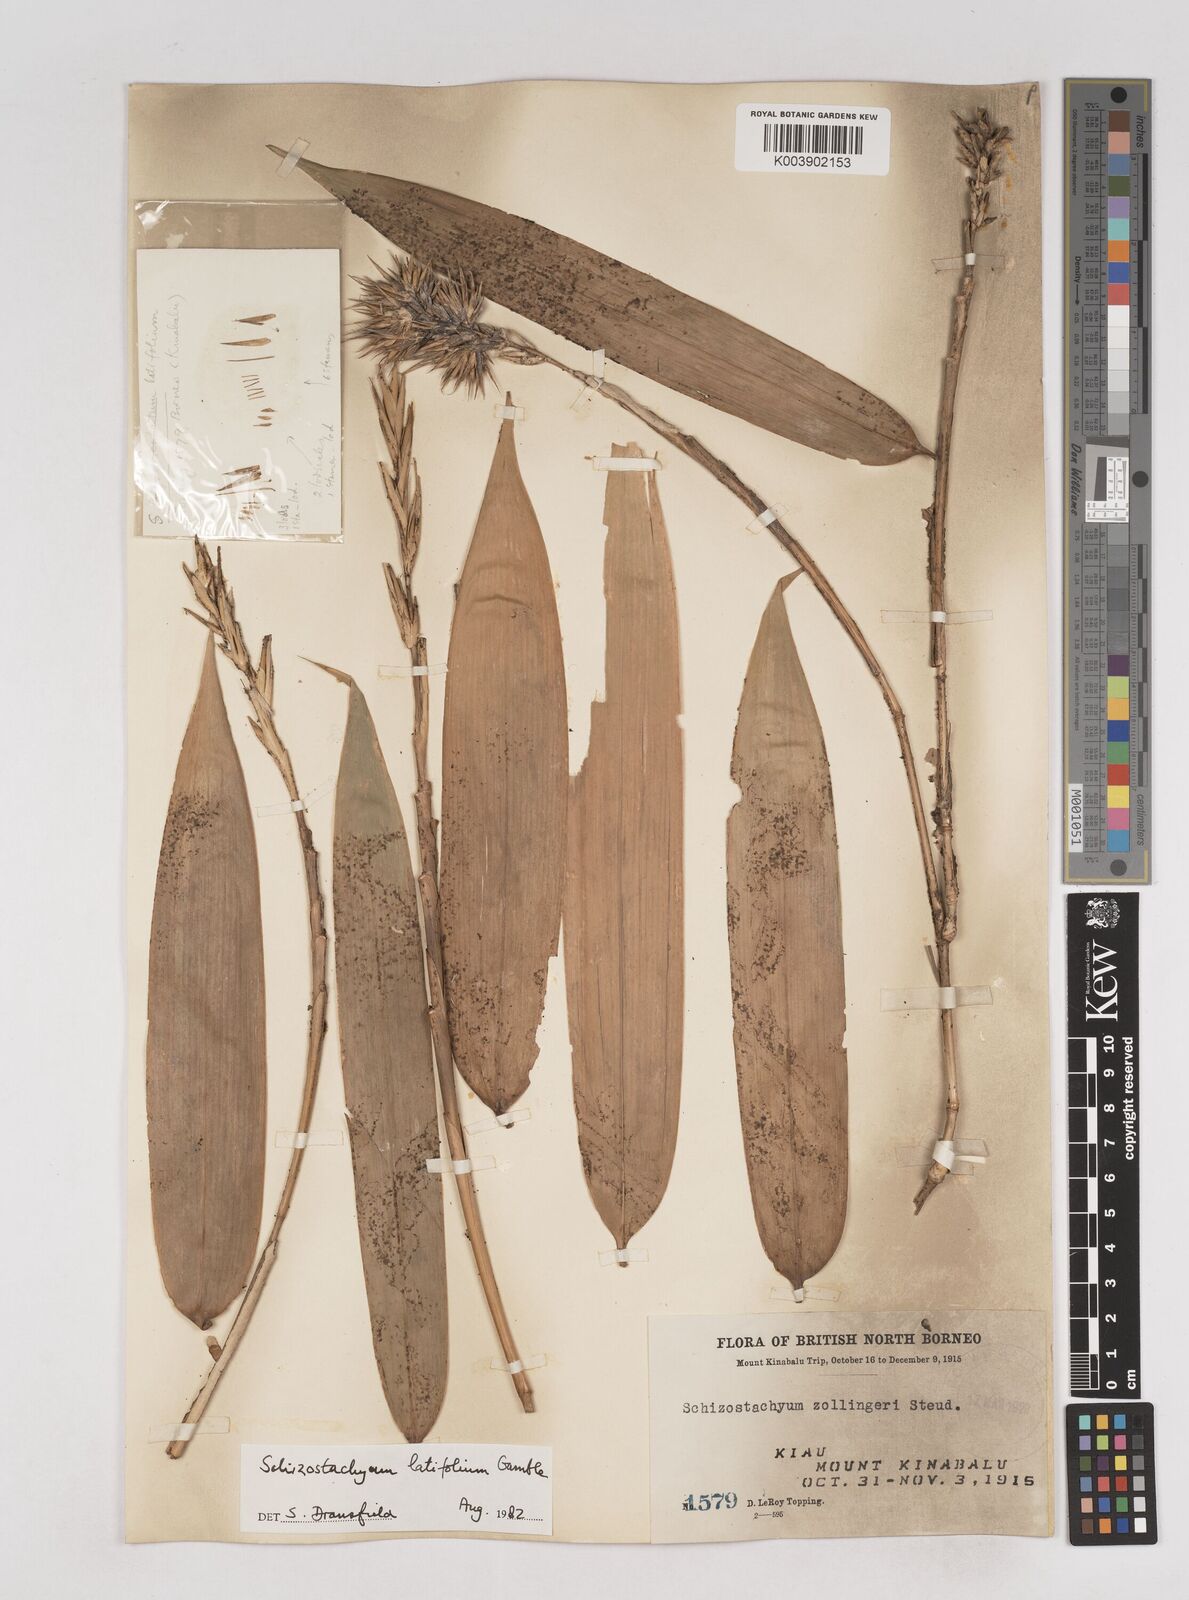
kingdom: Plantae
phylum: Tracheophyta
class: Liliopsida
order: Poales
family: Poaceae
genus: Schizostachyum
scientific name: Schizostachyum latifolium
